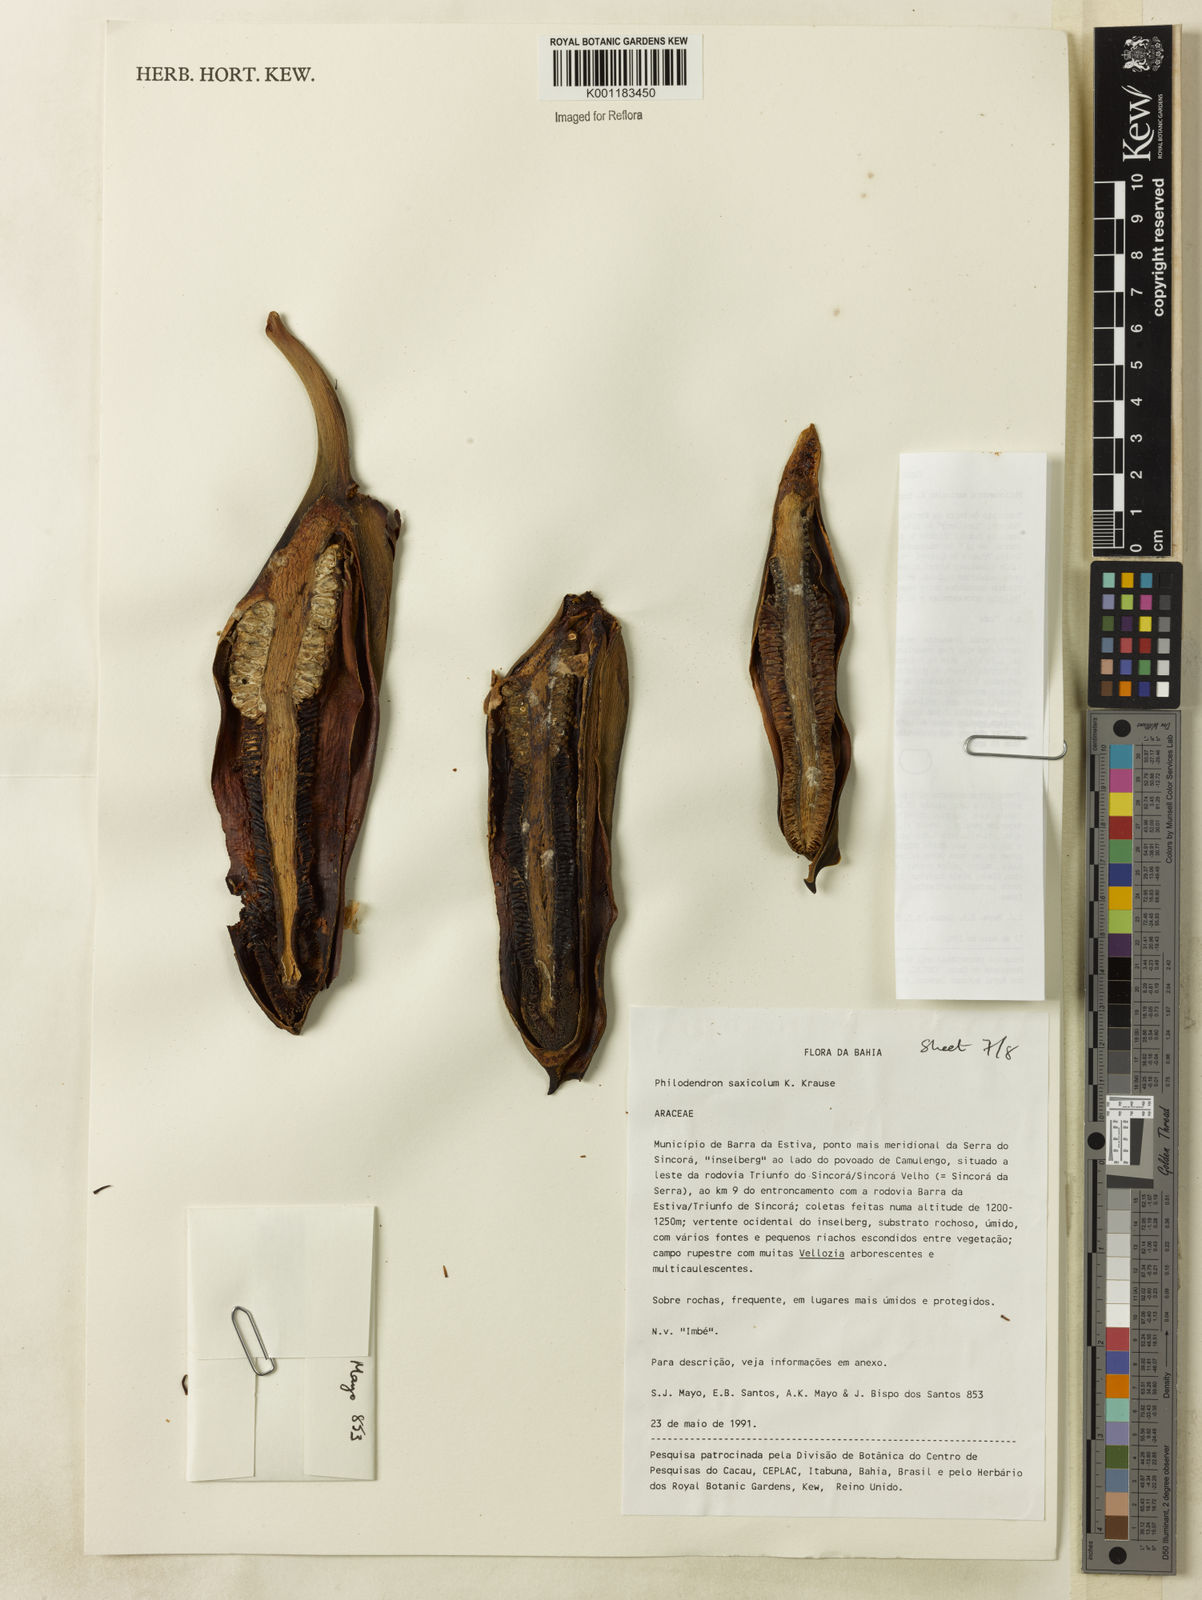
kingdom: Plantae
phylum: Tracheophyta
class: Liliopsida
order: Alismatales
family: Araceae
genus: Thaumatophyllum
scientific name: Thaumatophyllum saxicola
